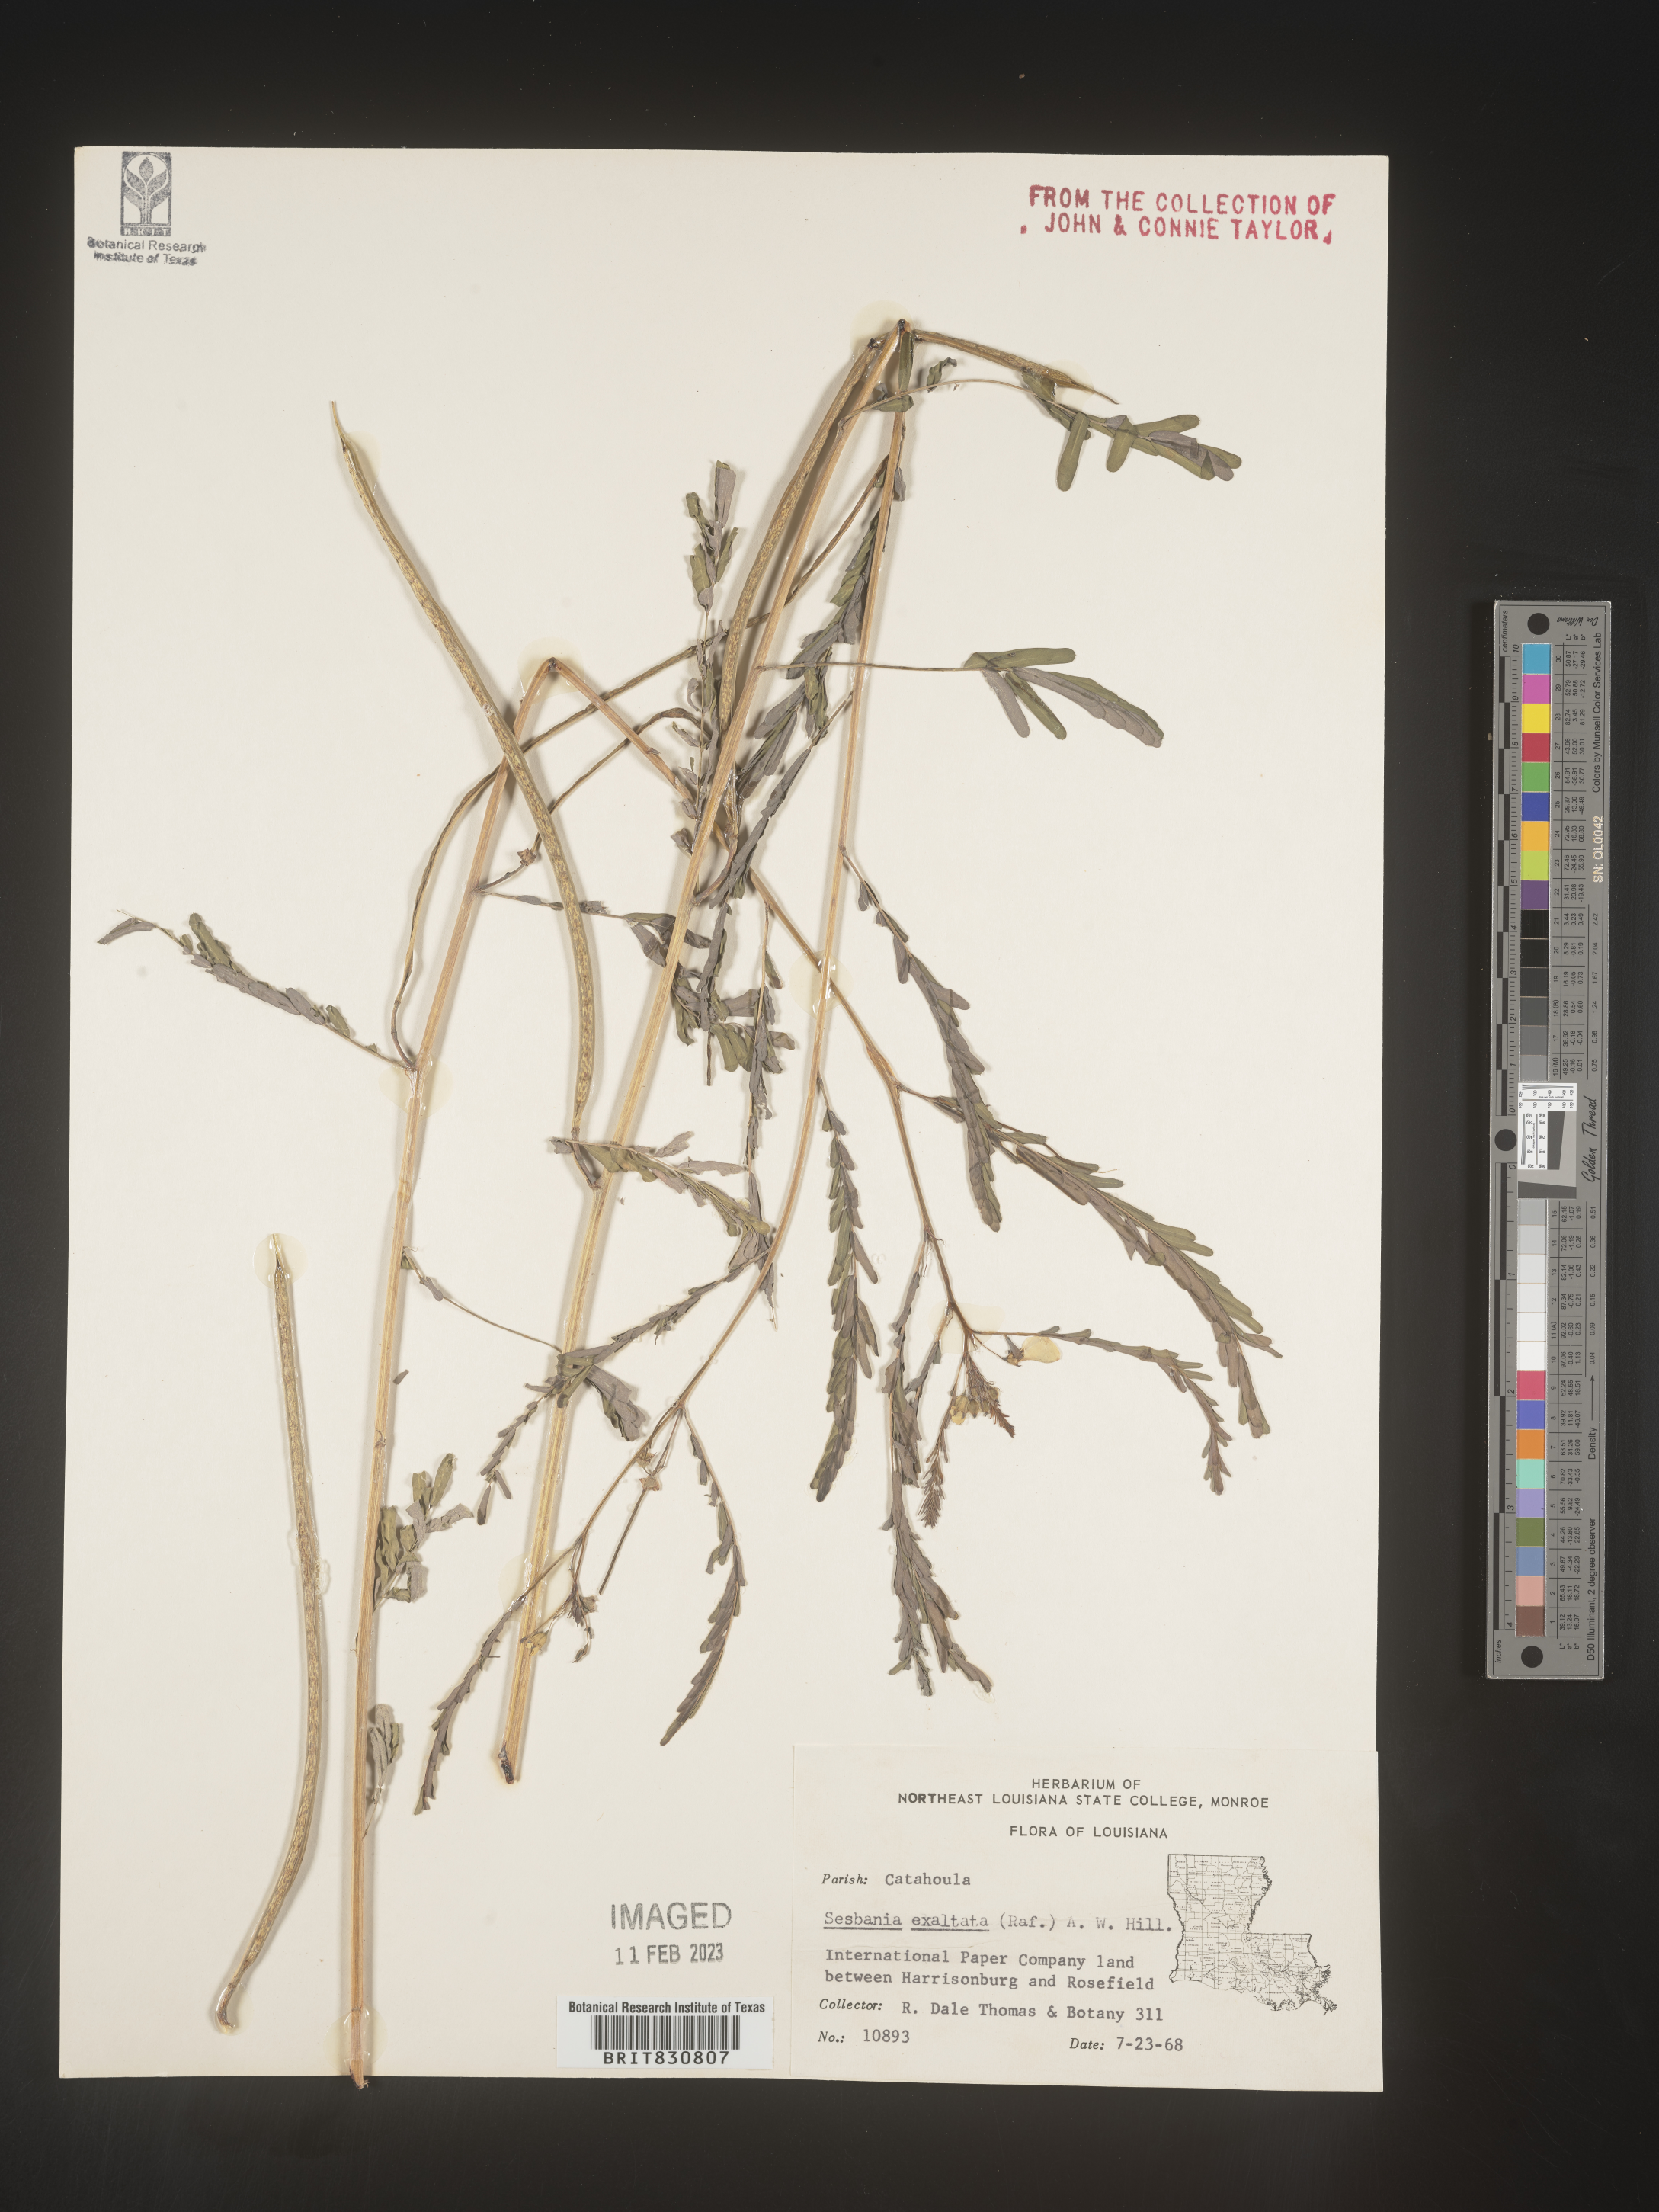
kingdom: Plantae
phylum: Tracheophyta
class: Magnoliopsida
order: Fabales
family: Fabaceae
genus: Sesbania
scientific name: Sesbania herbacea
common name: Bigpod sesbania
